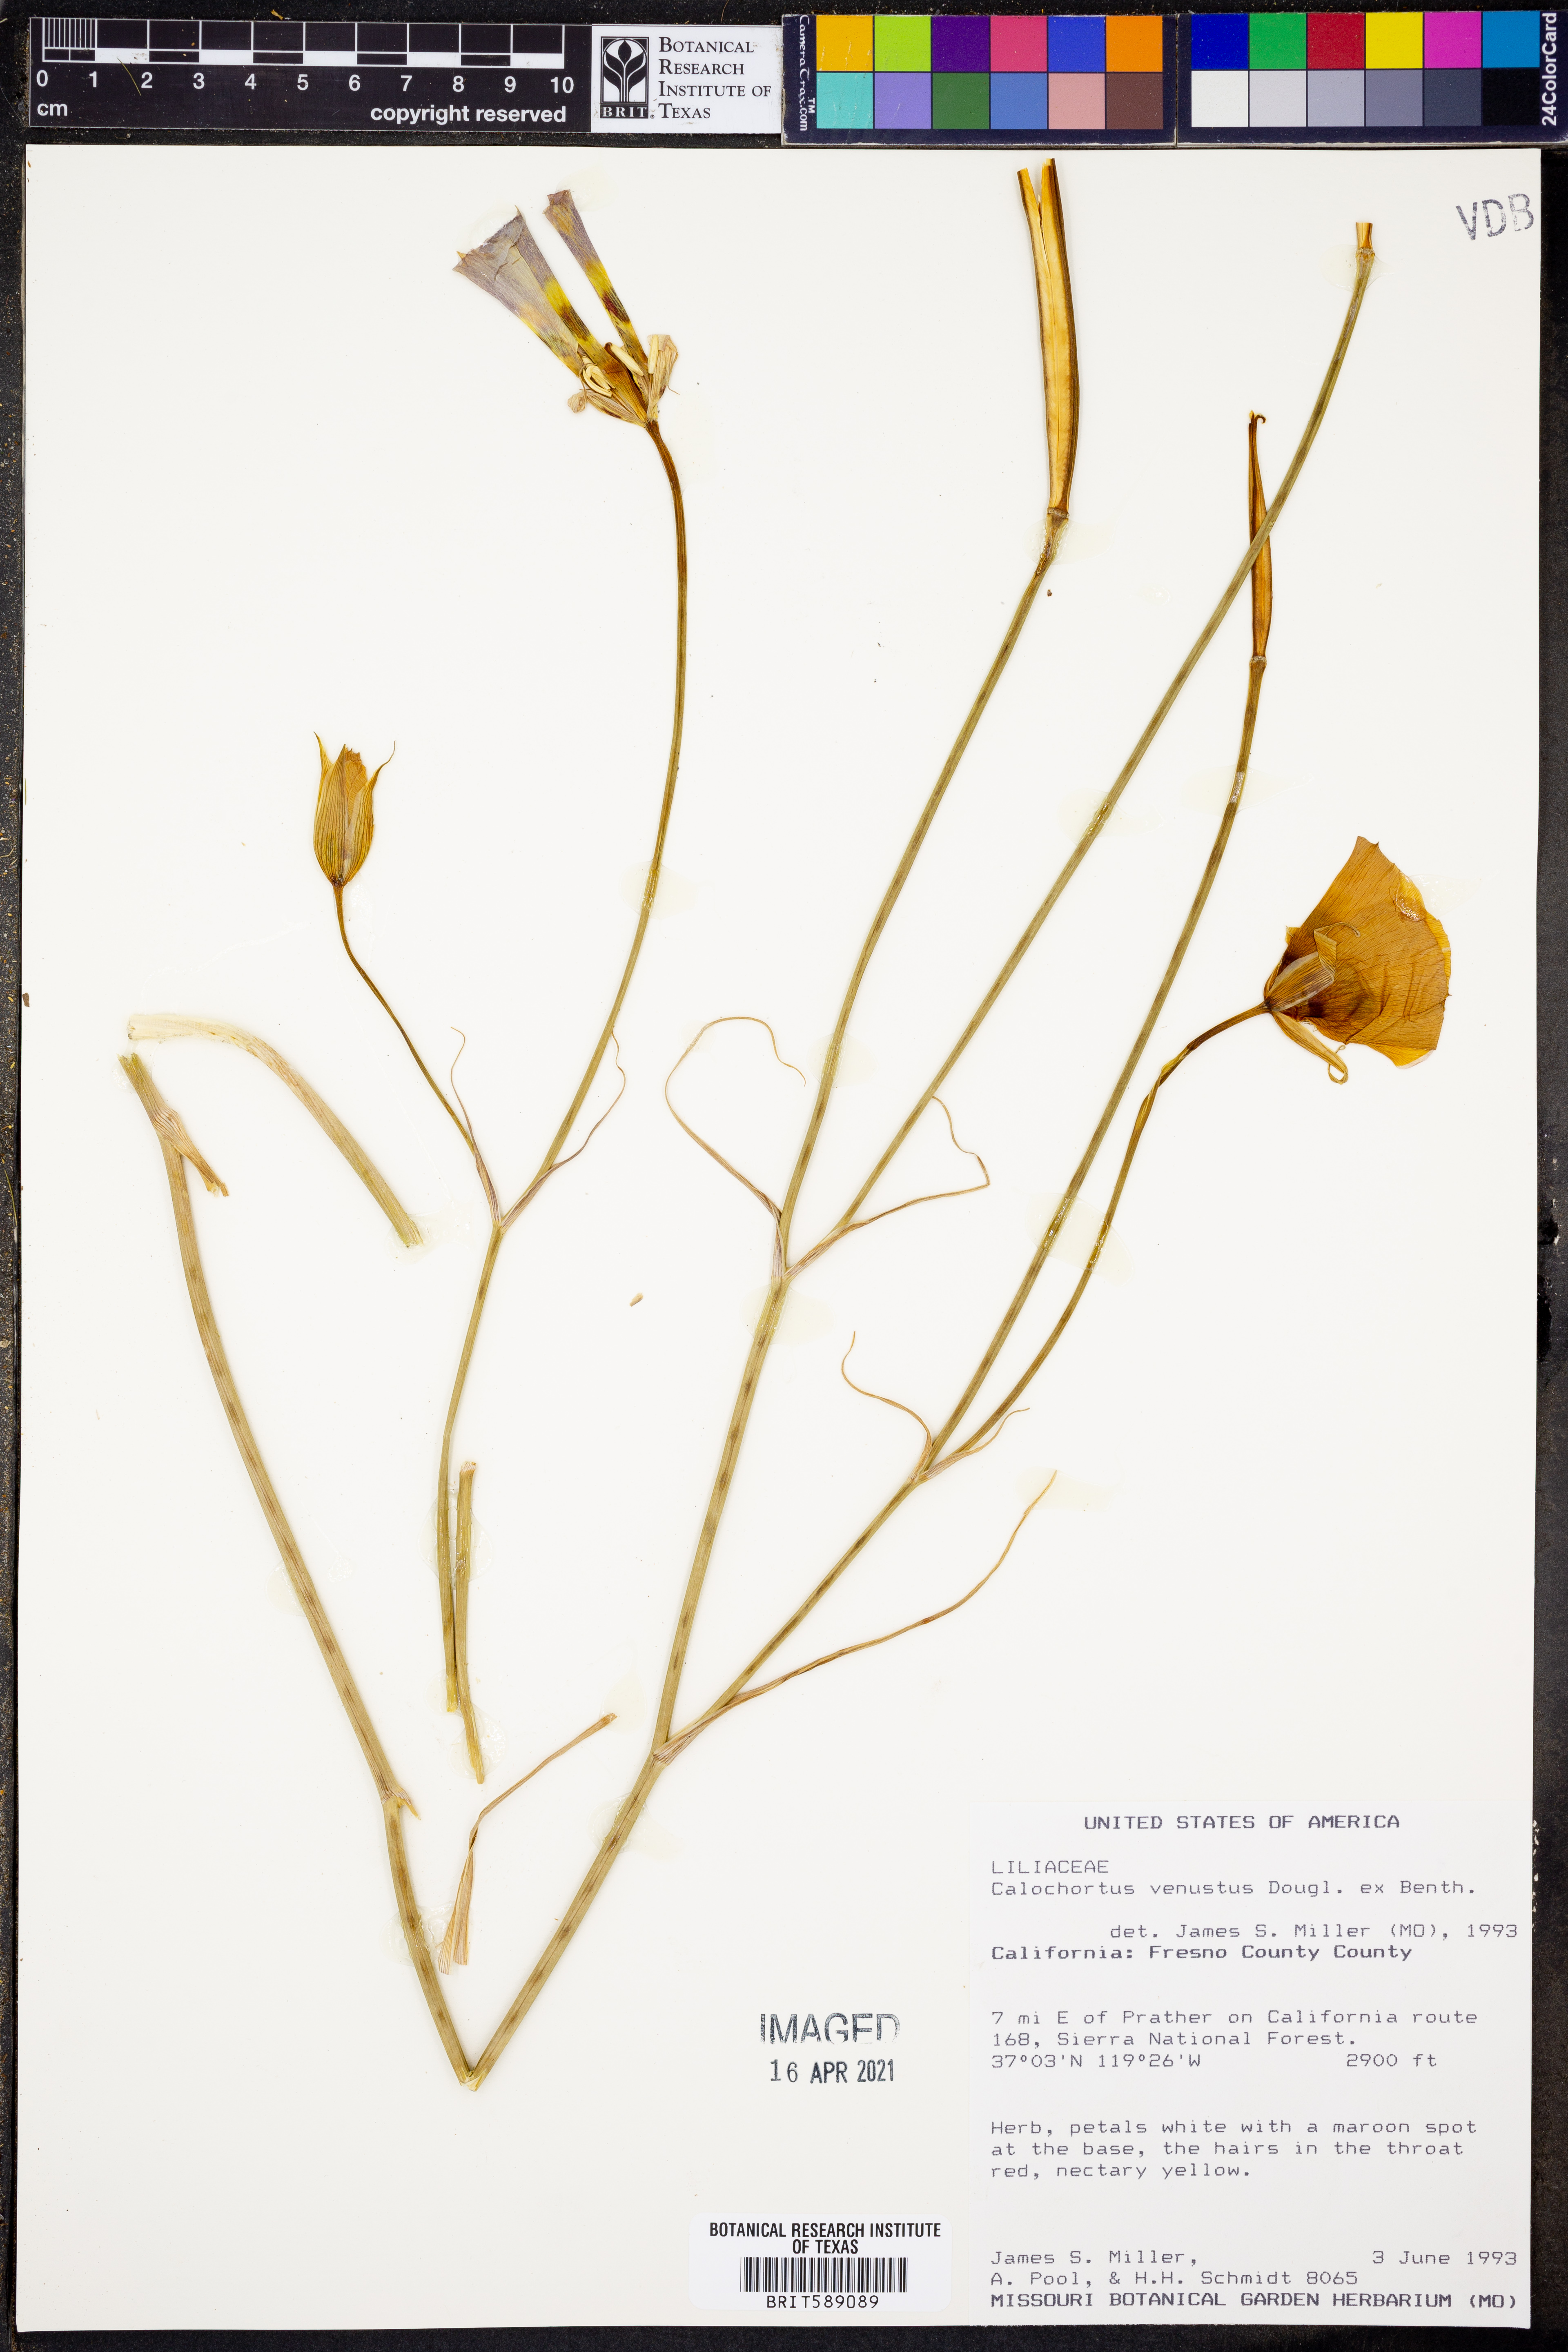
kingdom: Plantae
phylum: Tracheophyta
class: Liliopsida
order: Liliales
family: Liliaceae
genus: Calochortus
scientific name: Calochortus venustus
